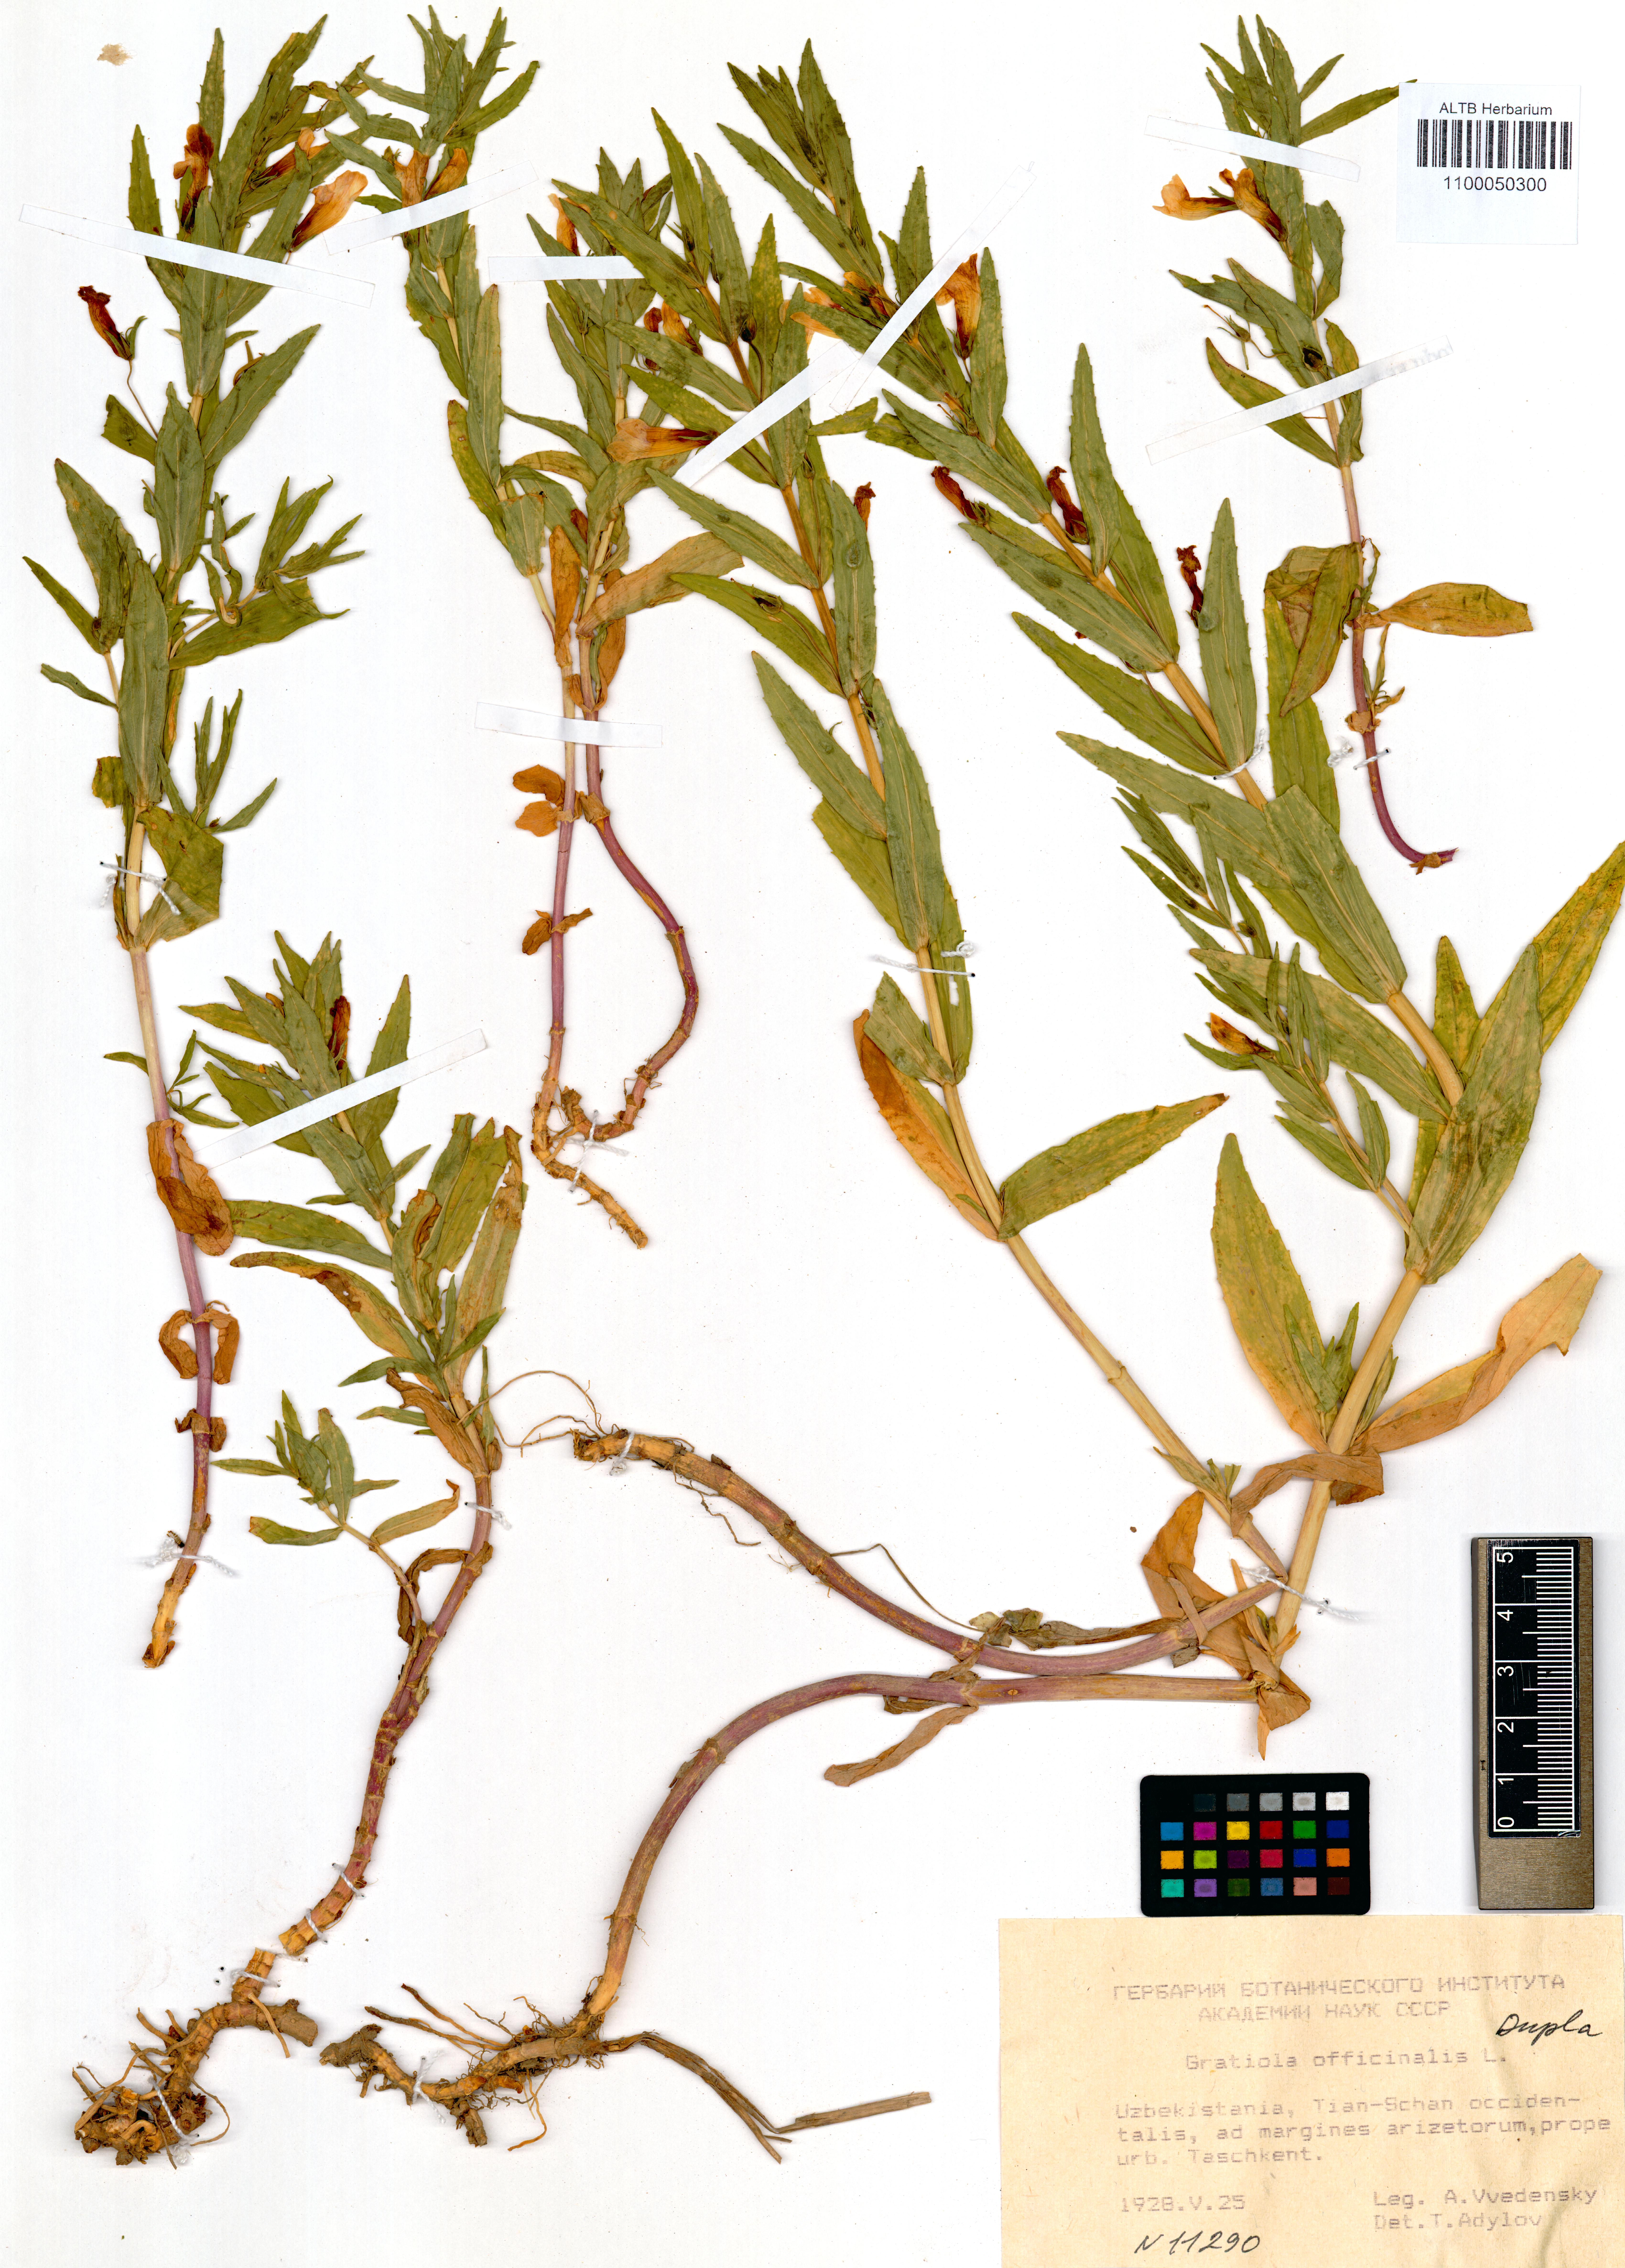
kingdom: Plantae
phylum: Tracheophyta
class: Magnoliopsida
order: Lamiales
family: Plantaginaceae
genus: Gratiola
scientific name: Gratiola officinalis
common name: Gratiola
